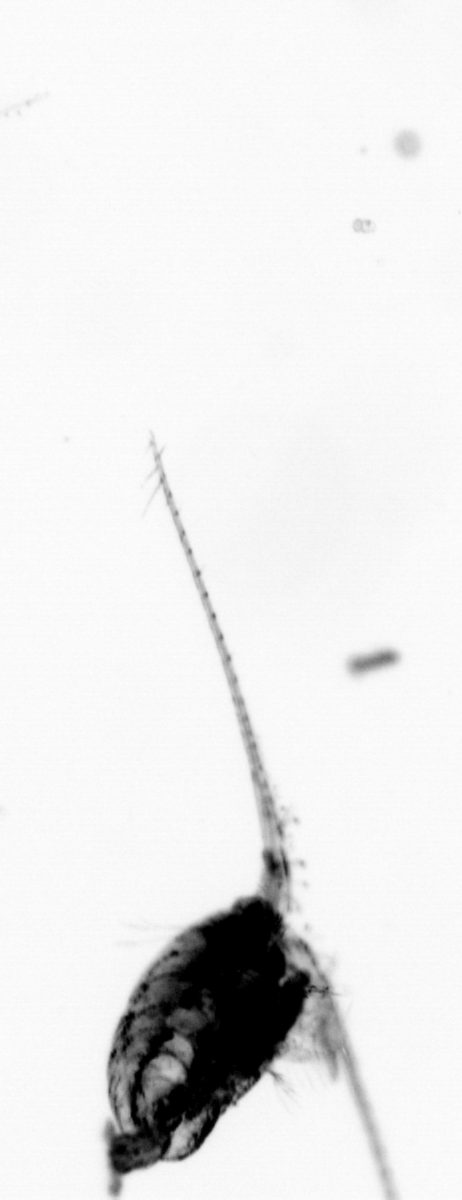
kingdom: Animalia
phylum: Arthropoda
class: Copepoda
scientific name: Copepoda
